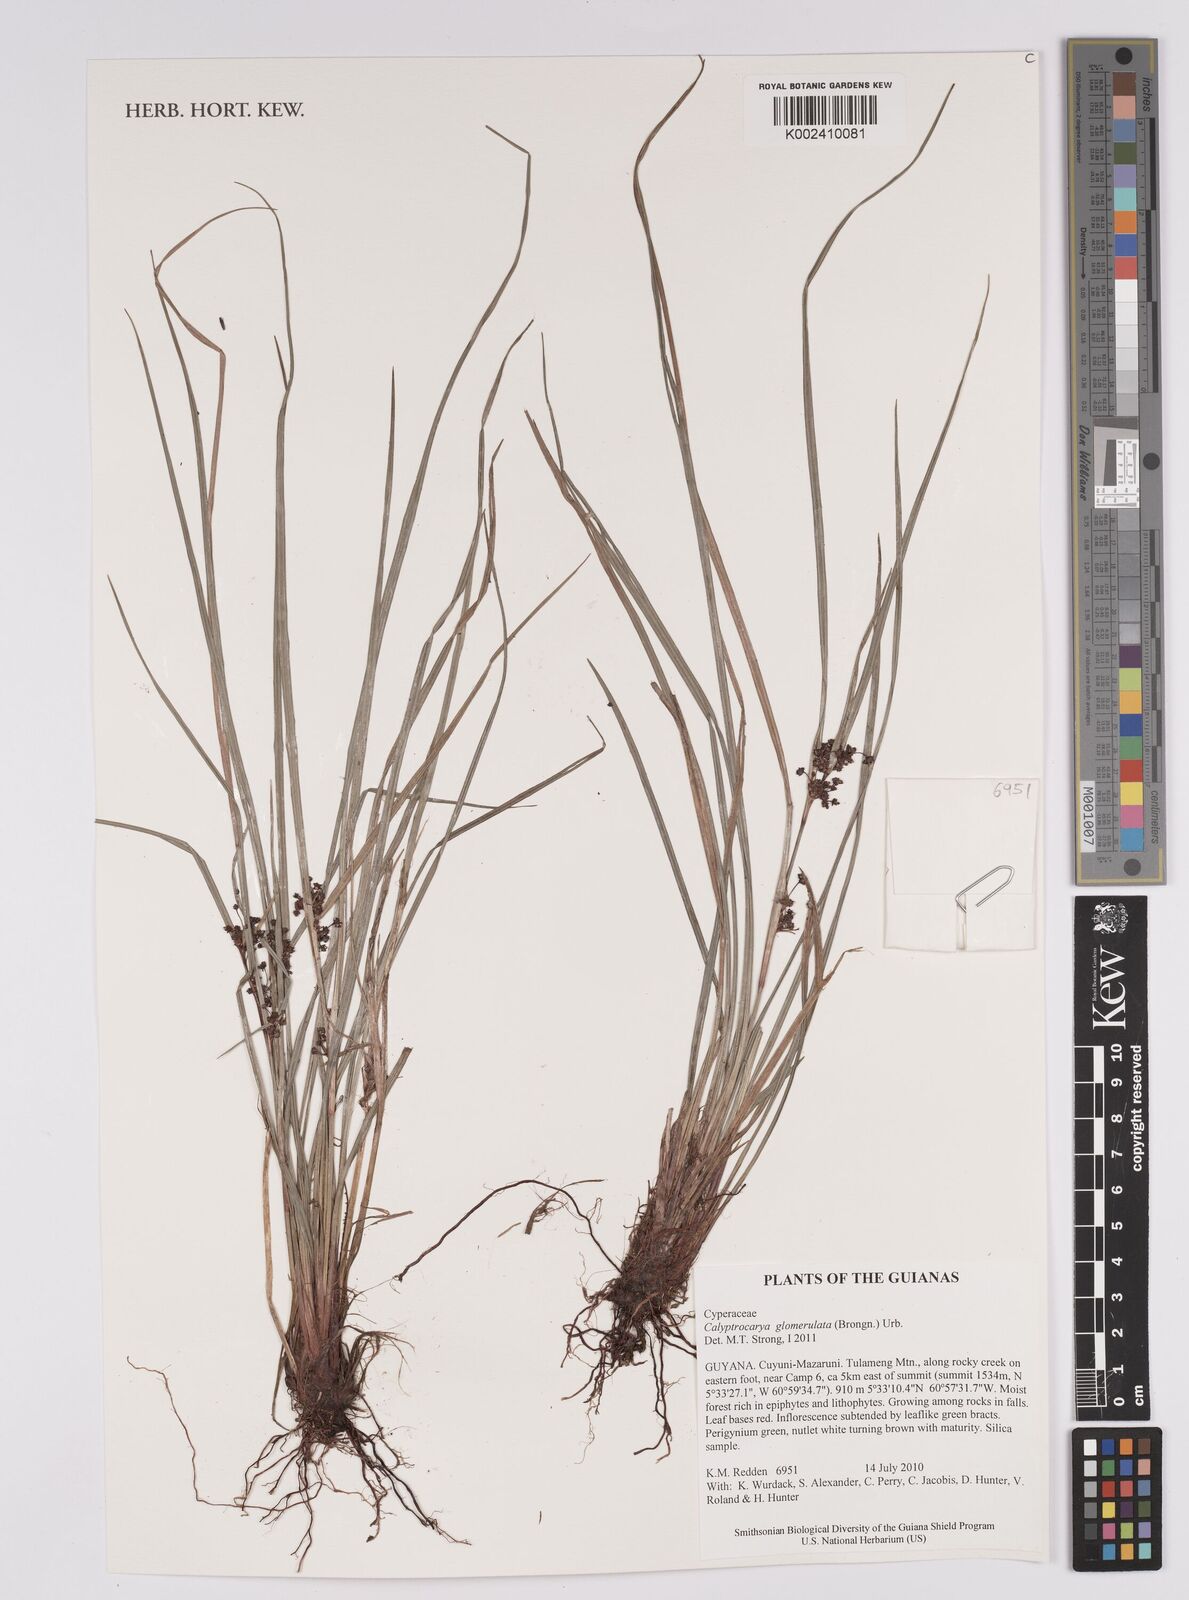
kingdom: Plantae
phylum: Tracheophyta
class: Liliopsida
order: Poales
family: Cyperaceae
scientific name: Cyperaceae
